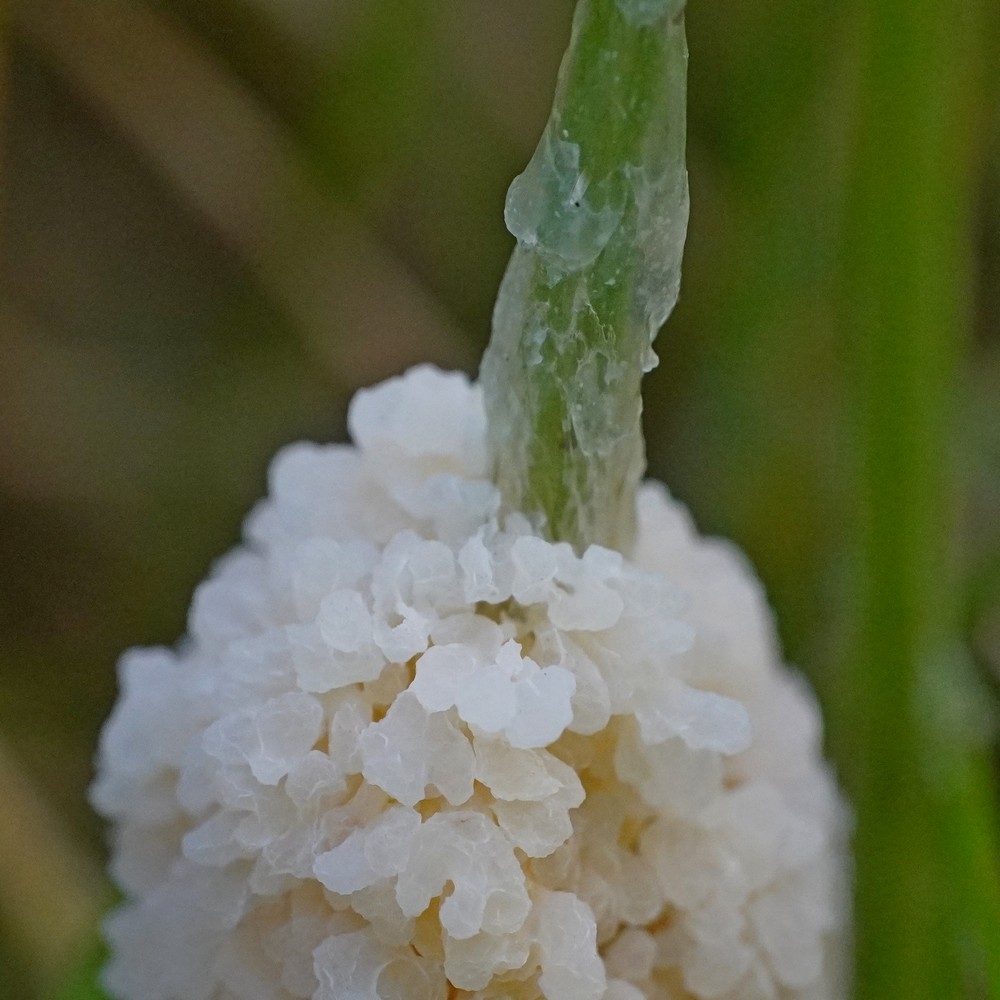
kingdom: Protozoa
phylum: Mycetozoa
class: Myxomycetes
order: Physarales
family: Physaraceae
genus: Didymium
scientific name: Didymium
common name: urteskum
